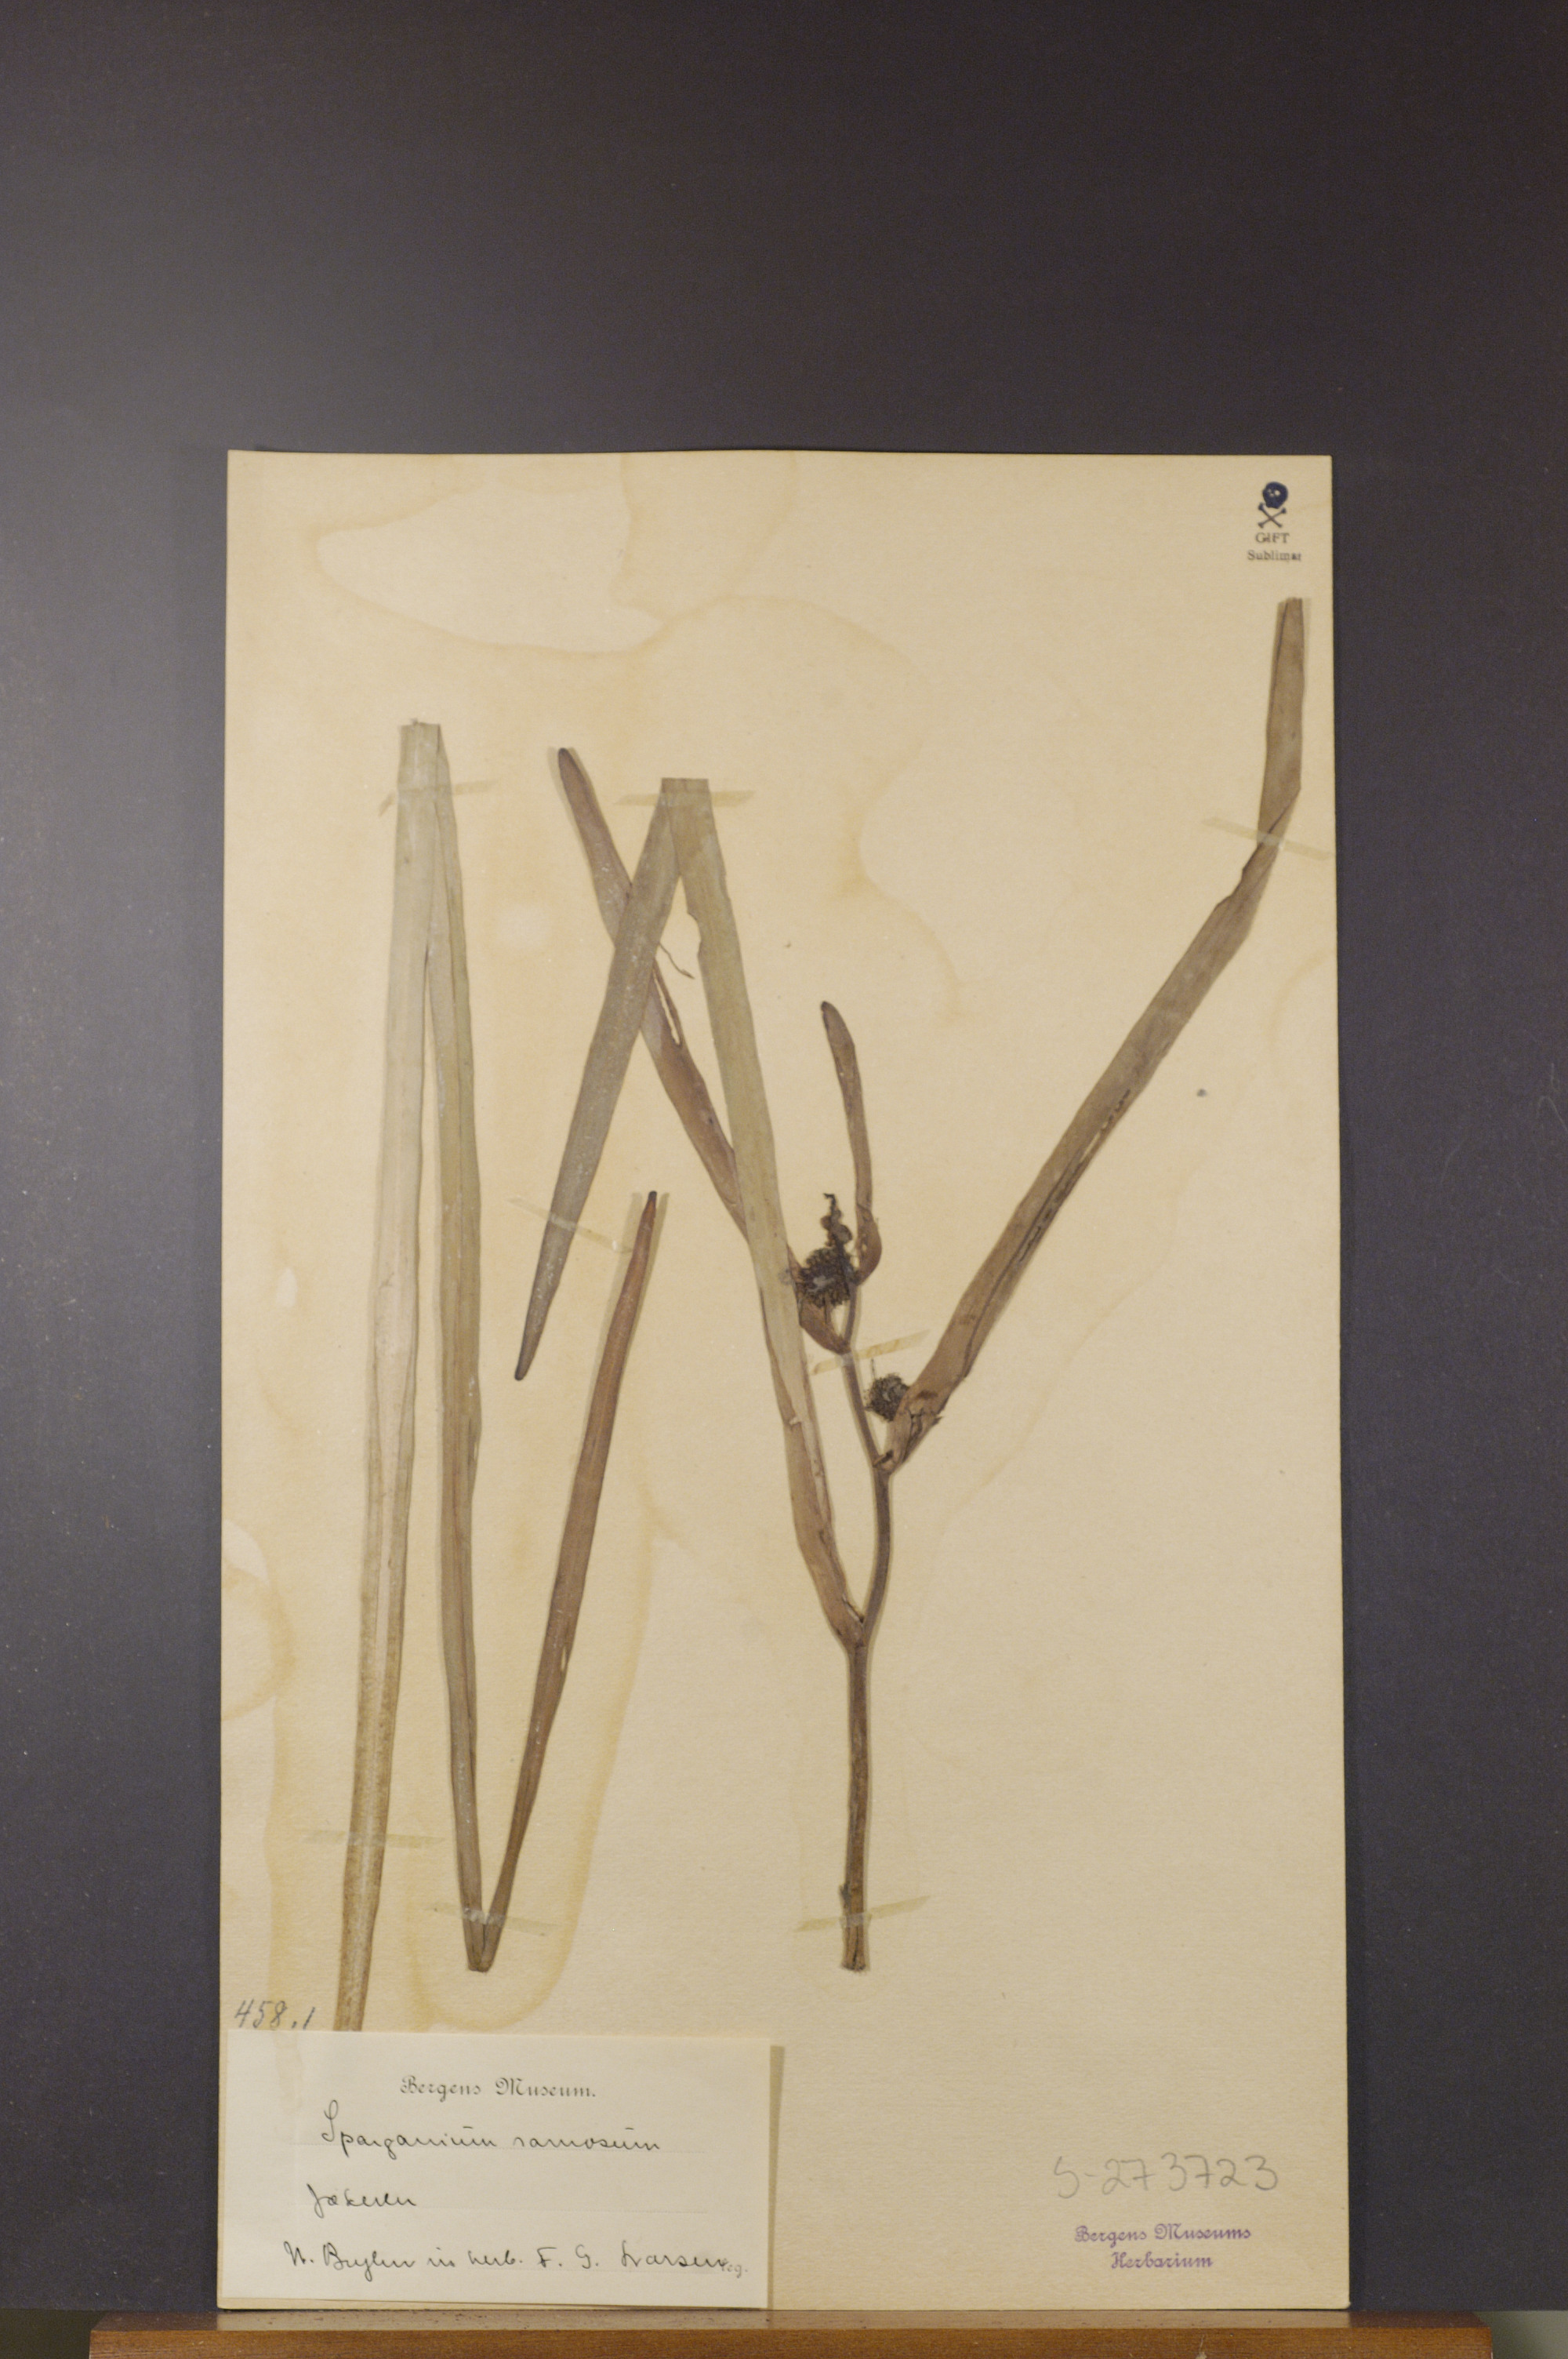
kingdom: Plantae
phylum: Tracheophyta
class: Liliopsida
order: Poales
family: Typhaceae
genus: Sparganium
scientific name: Sparganium erectum
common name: Branched bur-reed
